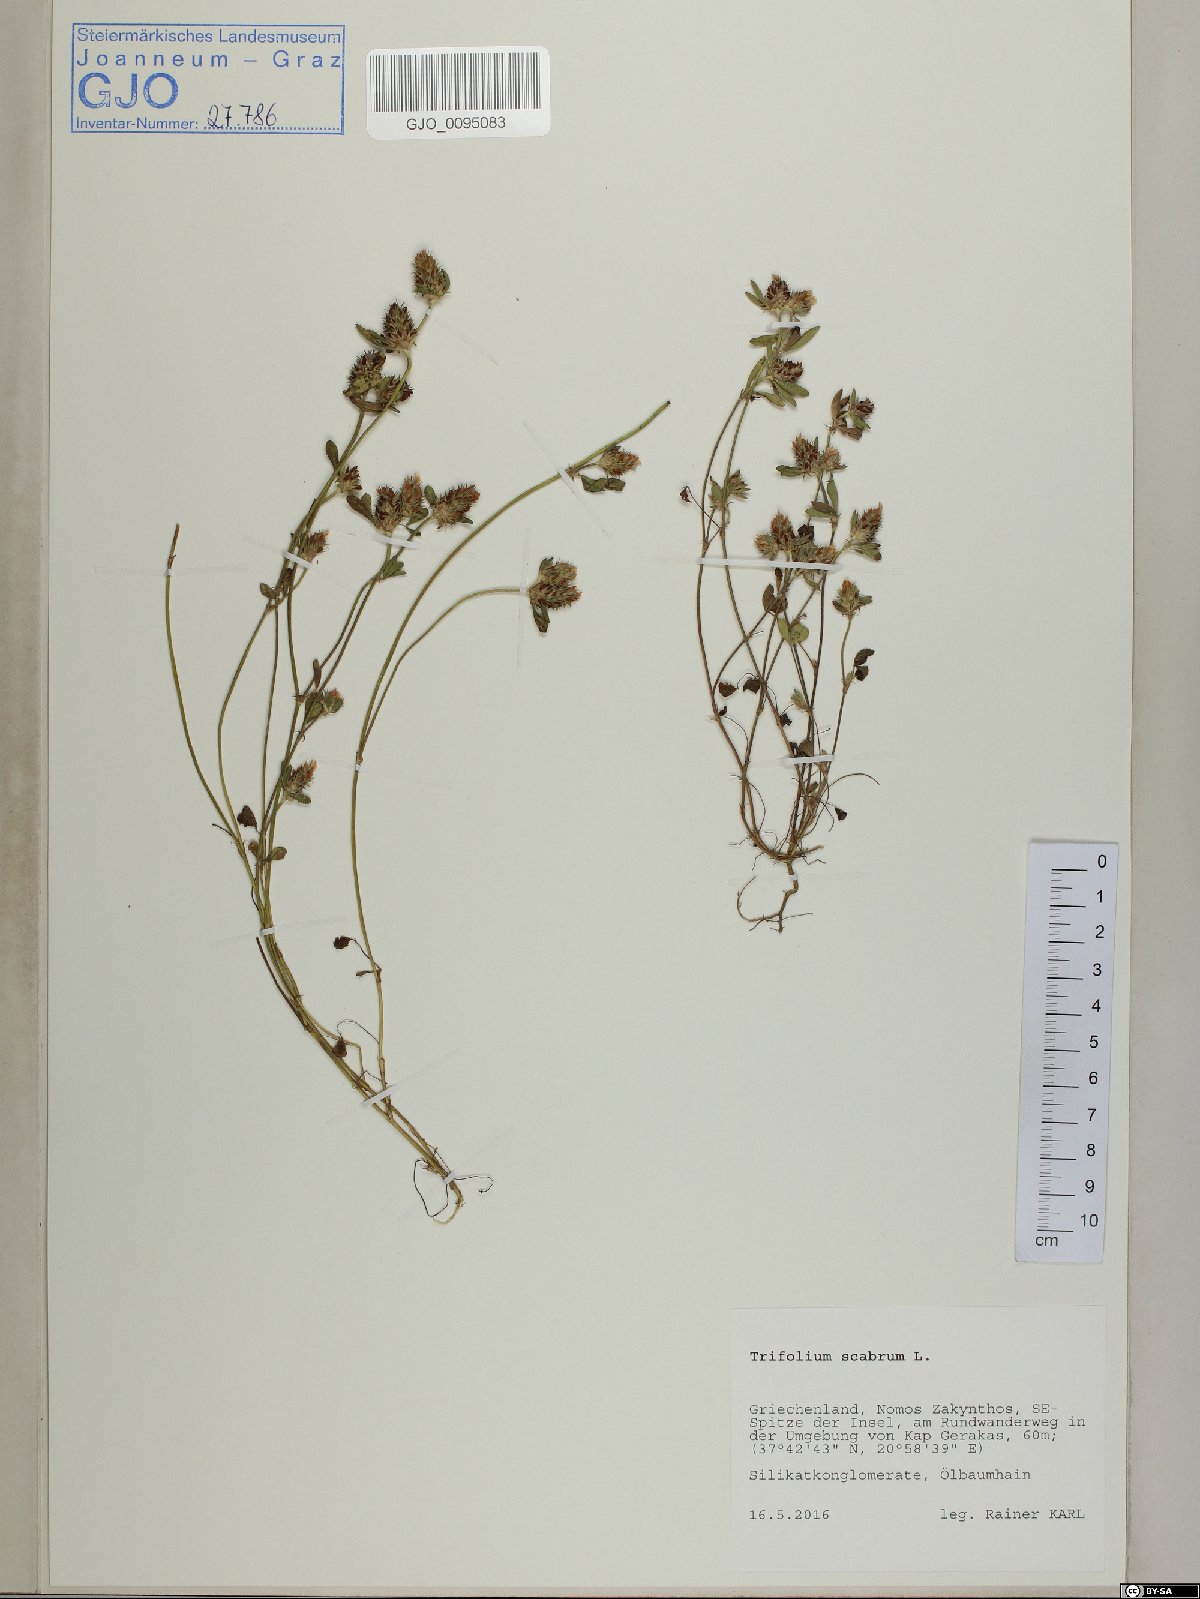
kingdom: Plantae
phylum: Tracheophyta
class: Magnoliopsida
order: Fabales
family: Fabaceae
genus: Trifolium
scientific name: Trifolium scabrum
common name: Rough clover
